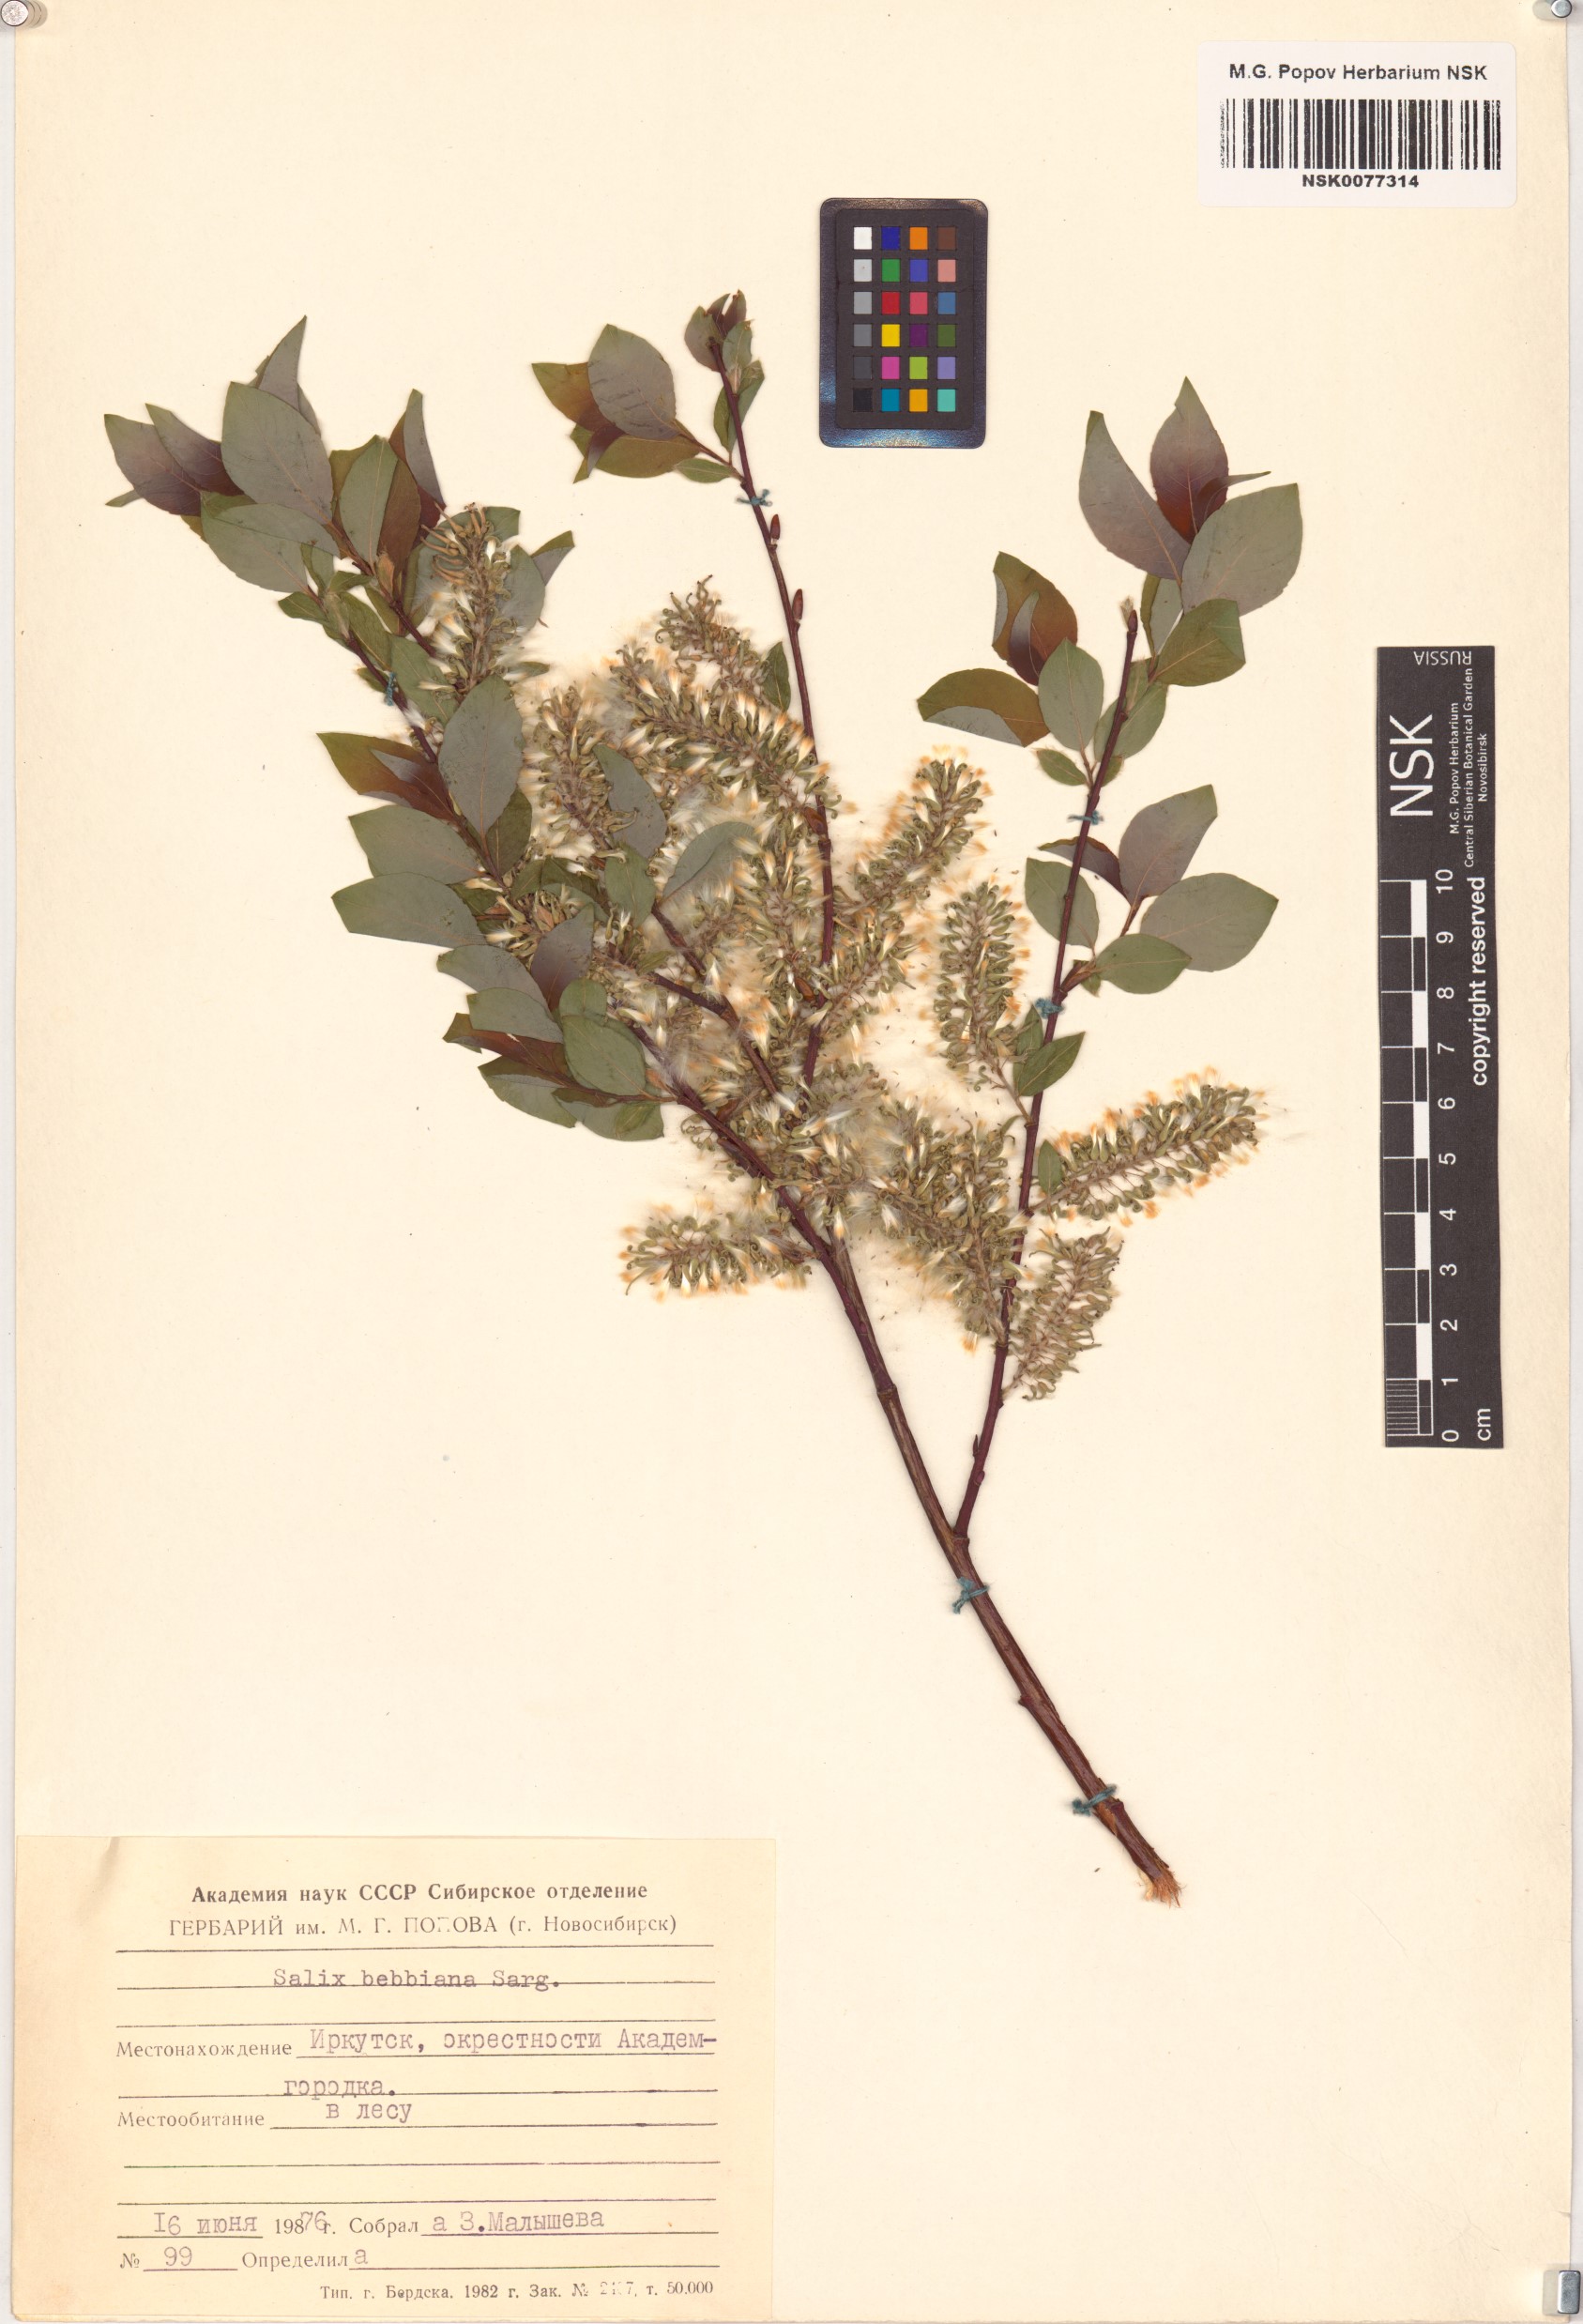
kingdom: Plantae
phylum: Tracheophyta
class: Magnoliopsida
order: Malpighiales
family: Salicaceae
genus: Salix
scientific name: Salix bebbiana
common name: Bebb's willow
